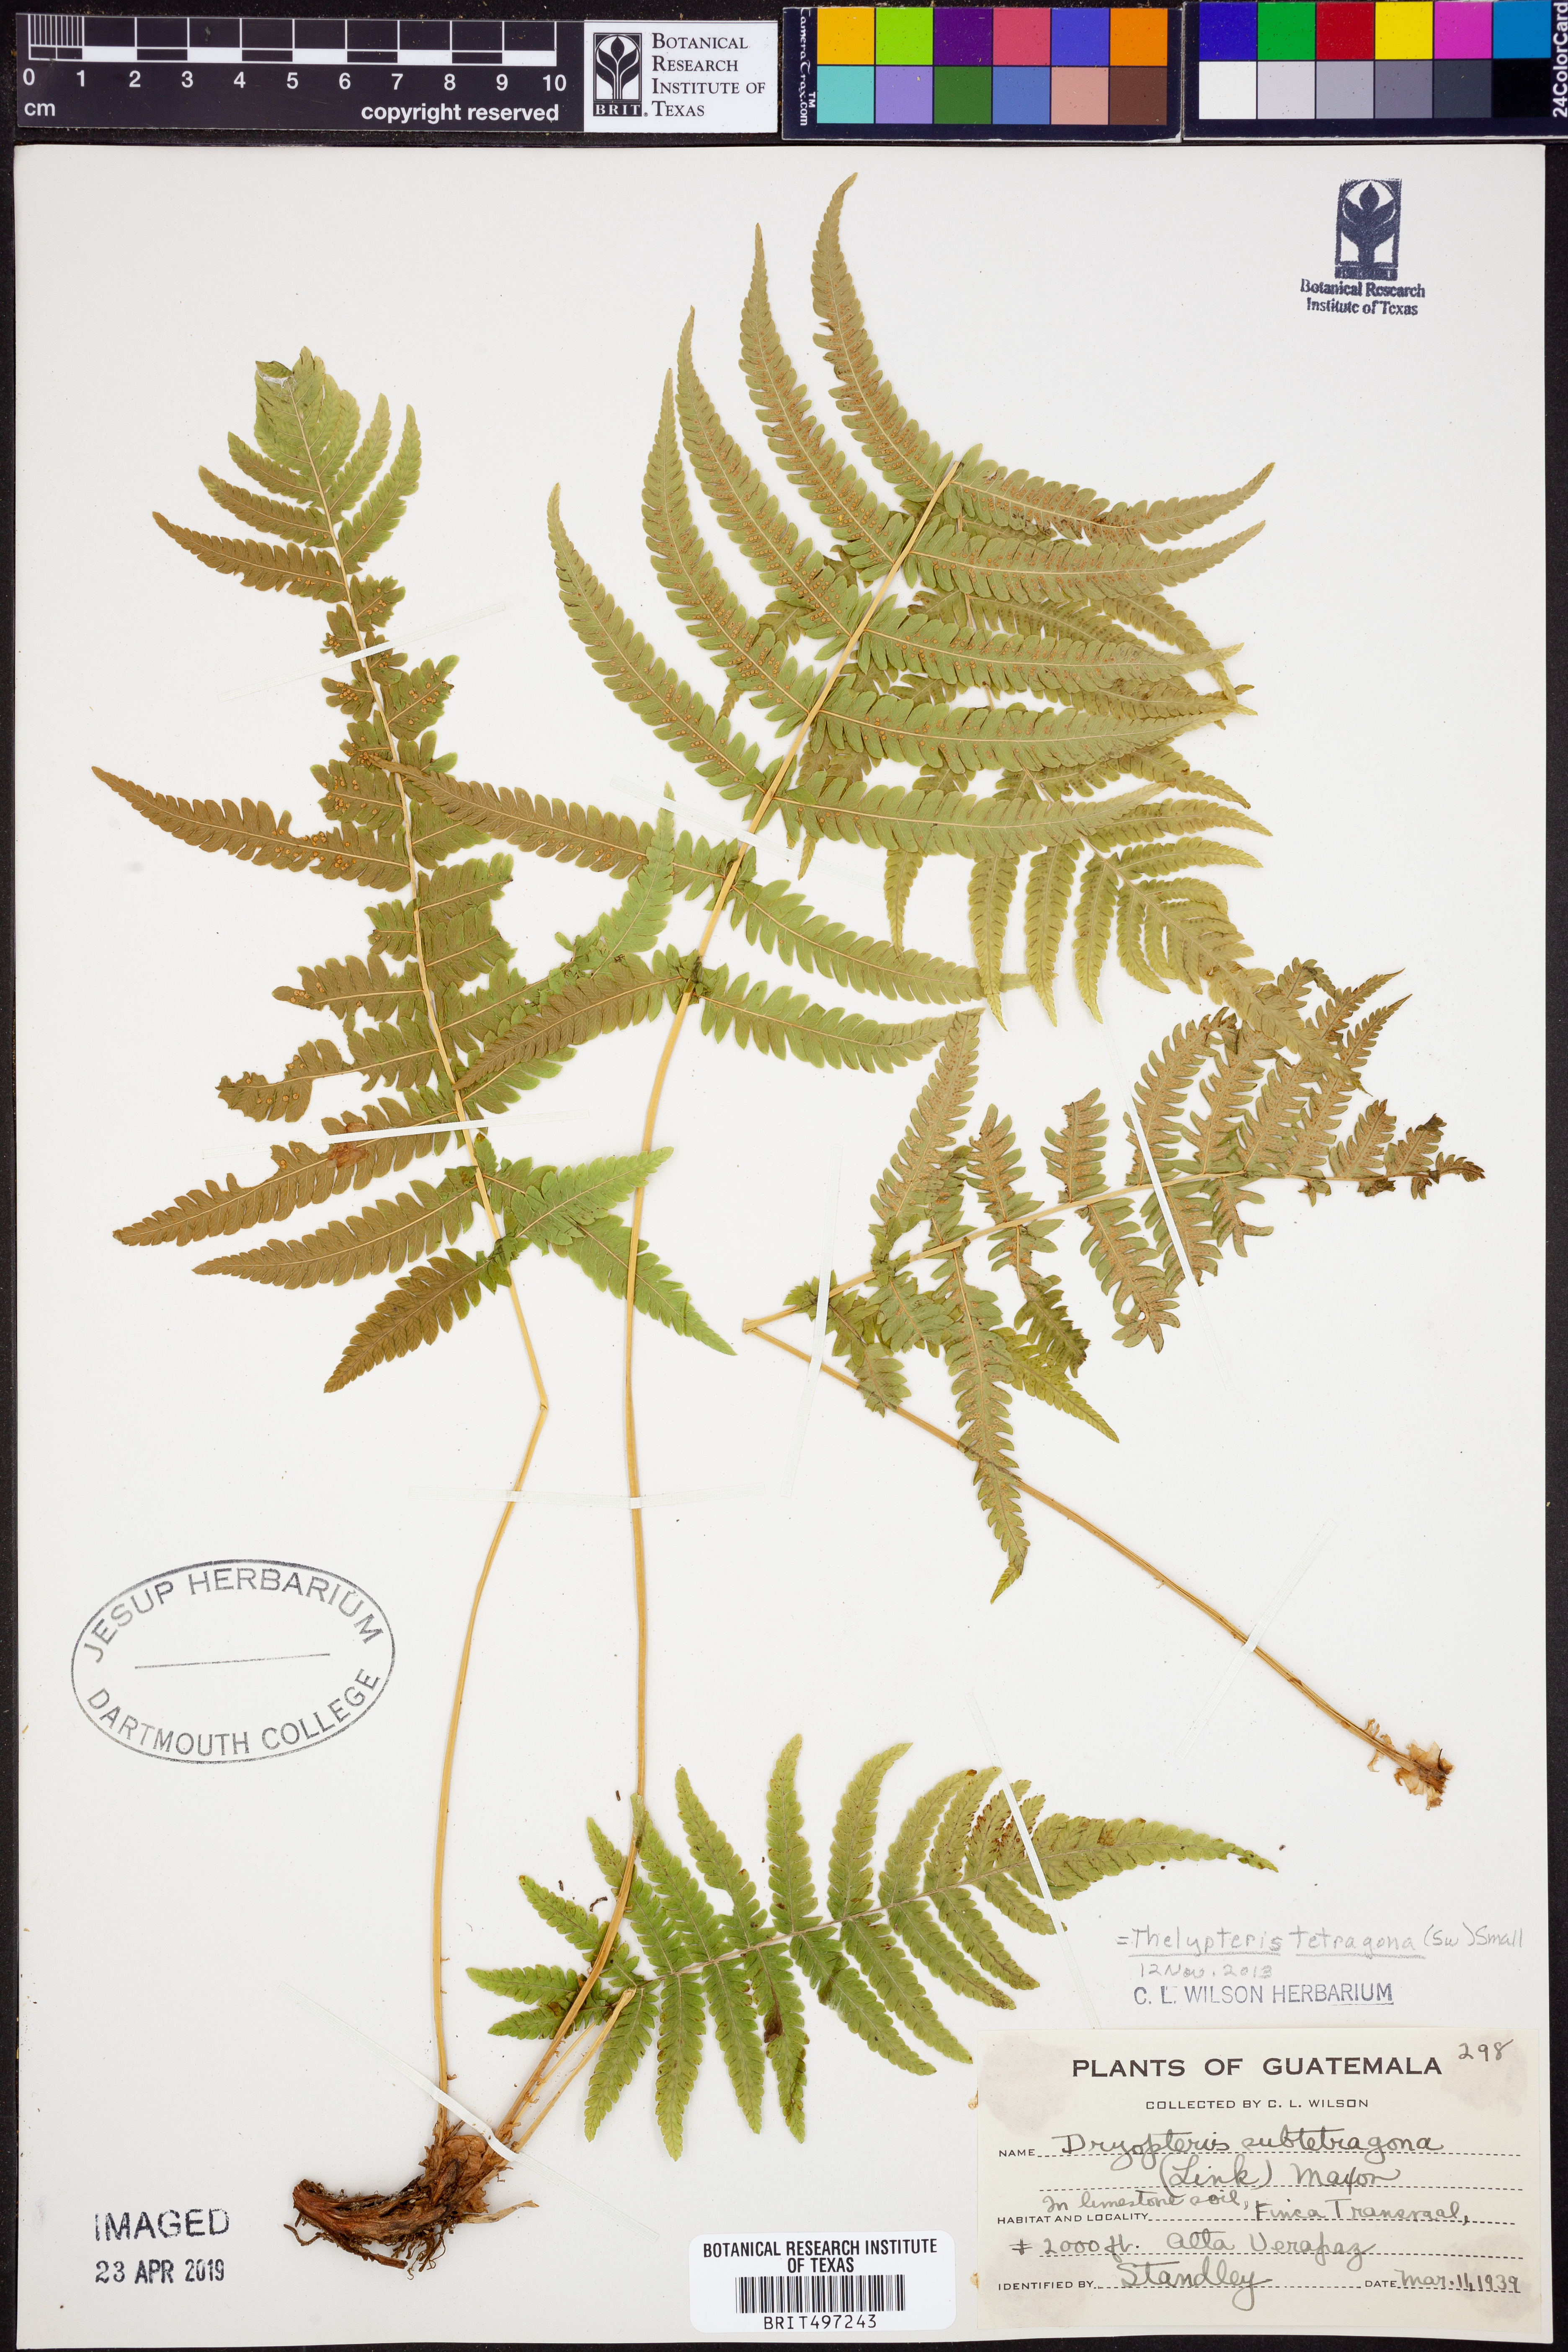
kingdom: Plantae
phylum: Tracheophyta
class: Polypodiopsida
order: Polypodiales
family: Thelypteridaceae
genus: Goniopteris
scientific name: Goniopteris tetragona
